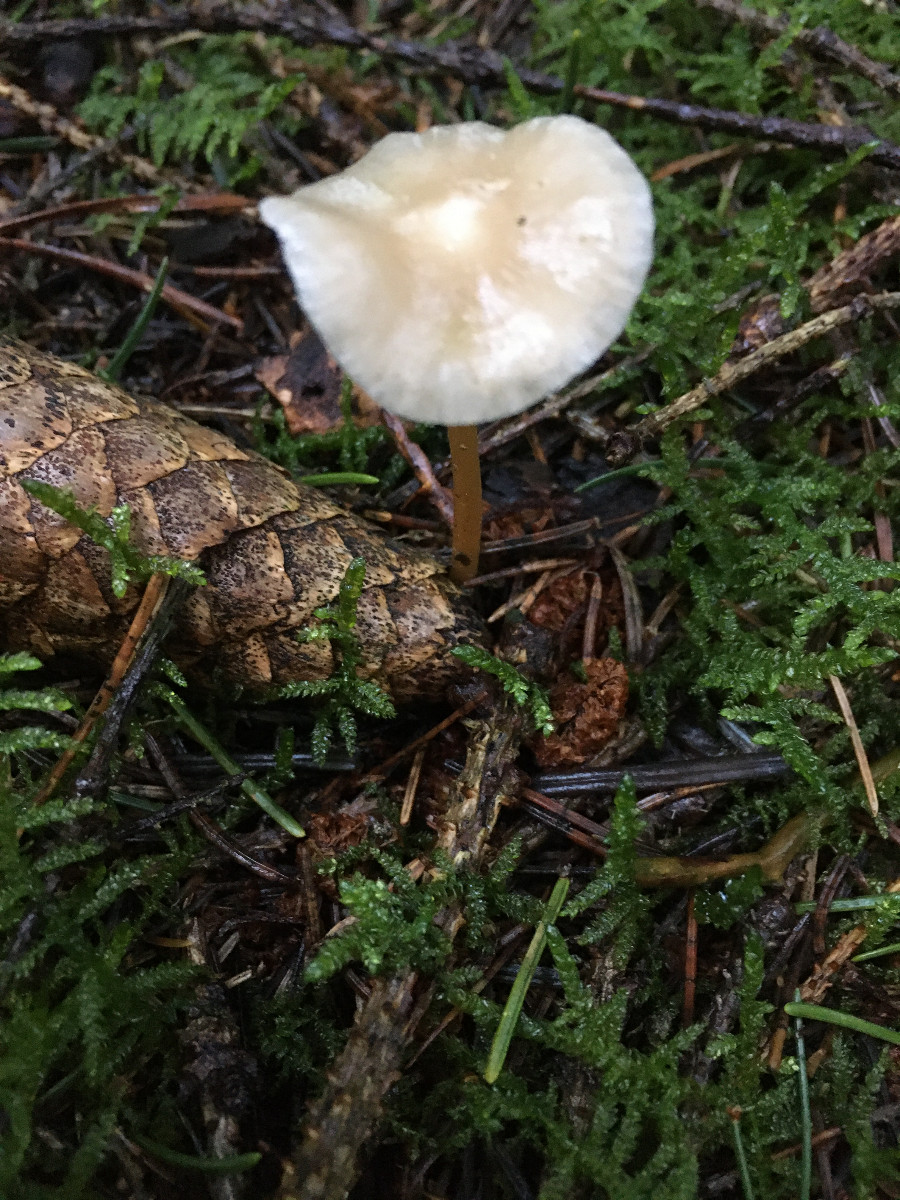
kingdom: Fungi
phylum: Basidiomycota
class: Agaricomycetes
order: Agaricales
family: Physalacriaceae
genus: Strobilurus
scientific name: Strobilurus esculentus
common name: gran-koglehat
